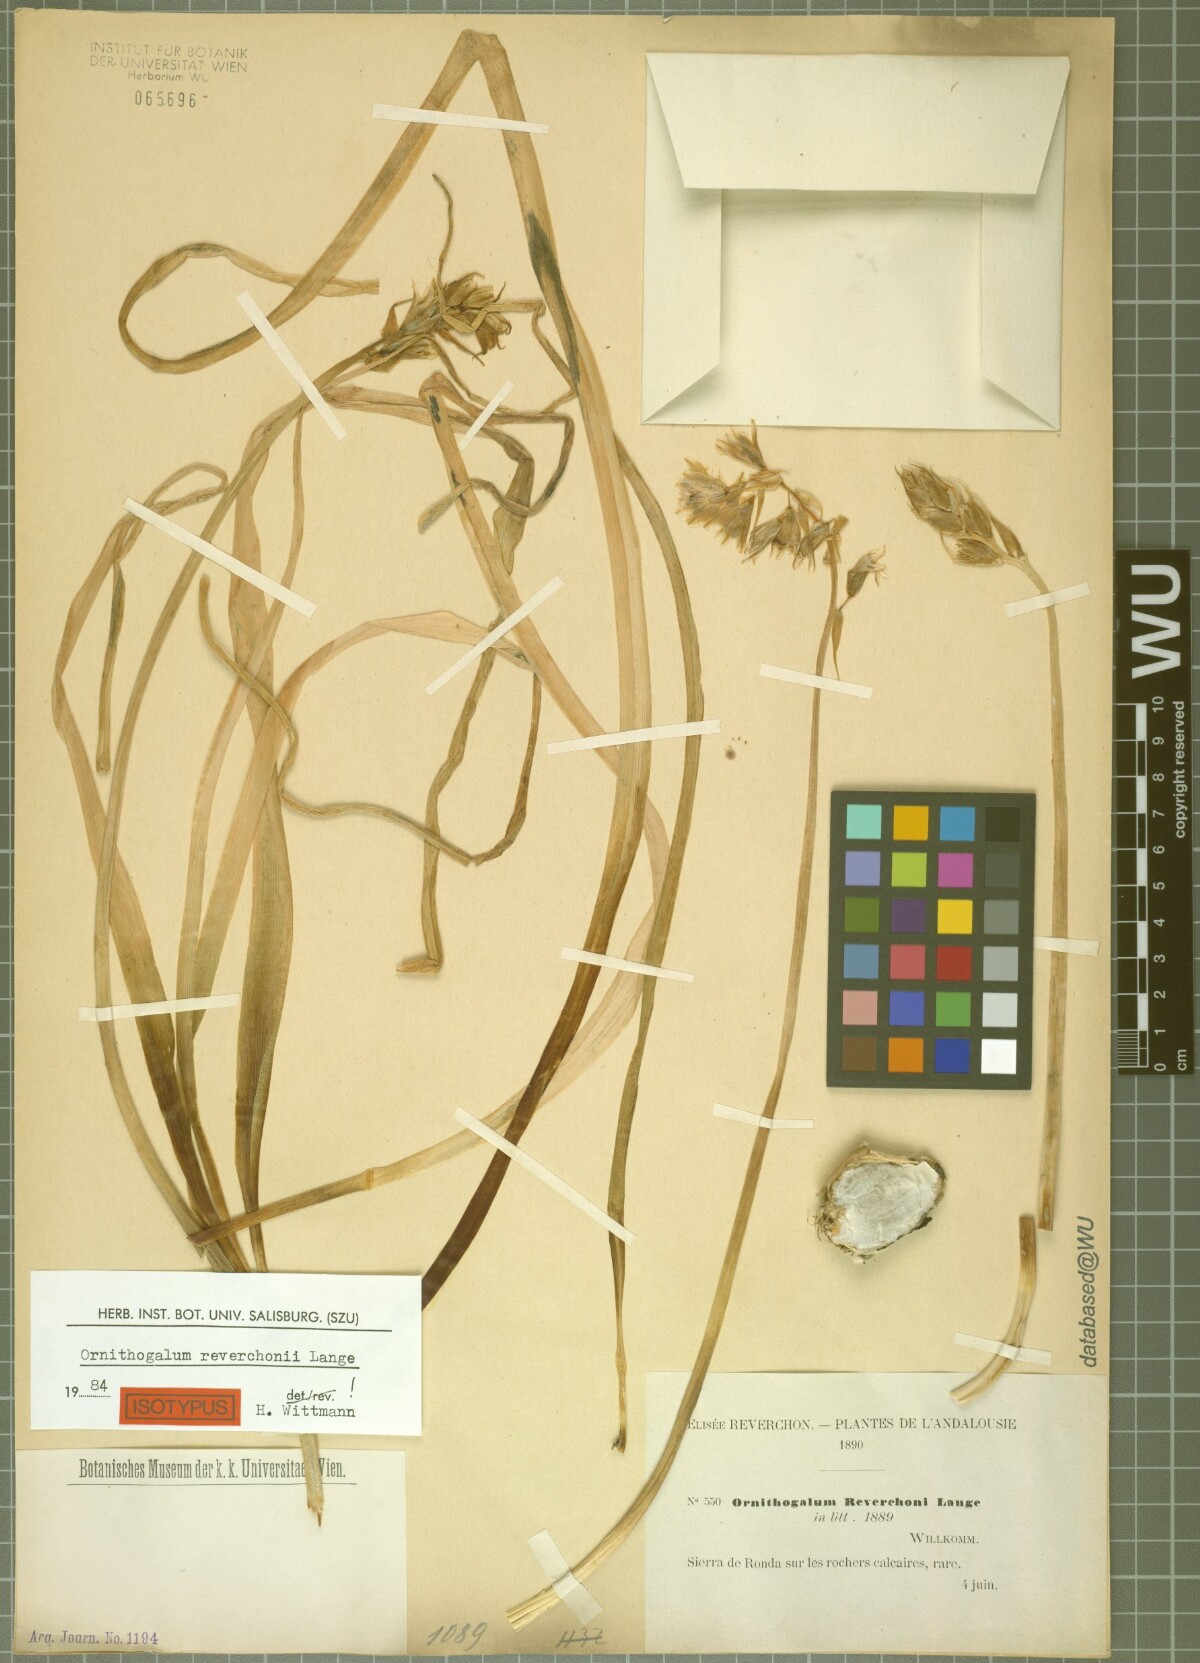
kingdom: Plantae
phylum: Tracheophyta
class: Liliopsida
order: Asparagales
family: Asparagaceae
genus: Ornithogalum
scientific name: Ornithogalum reverchonii
